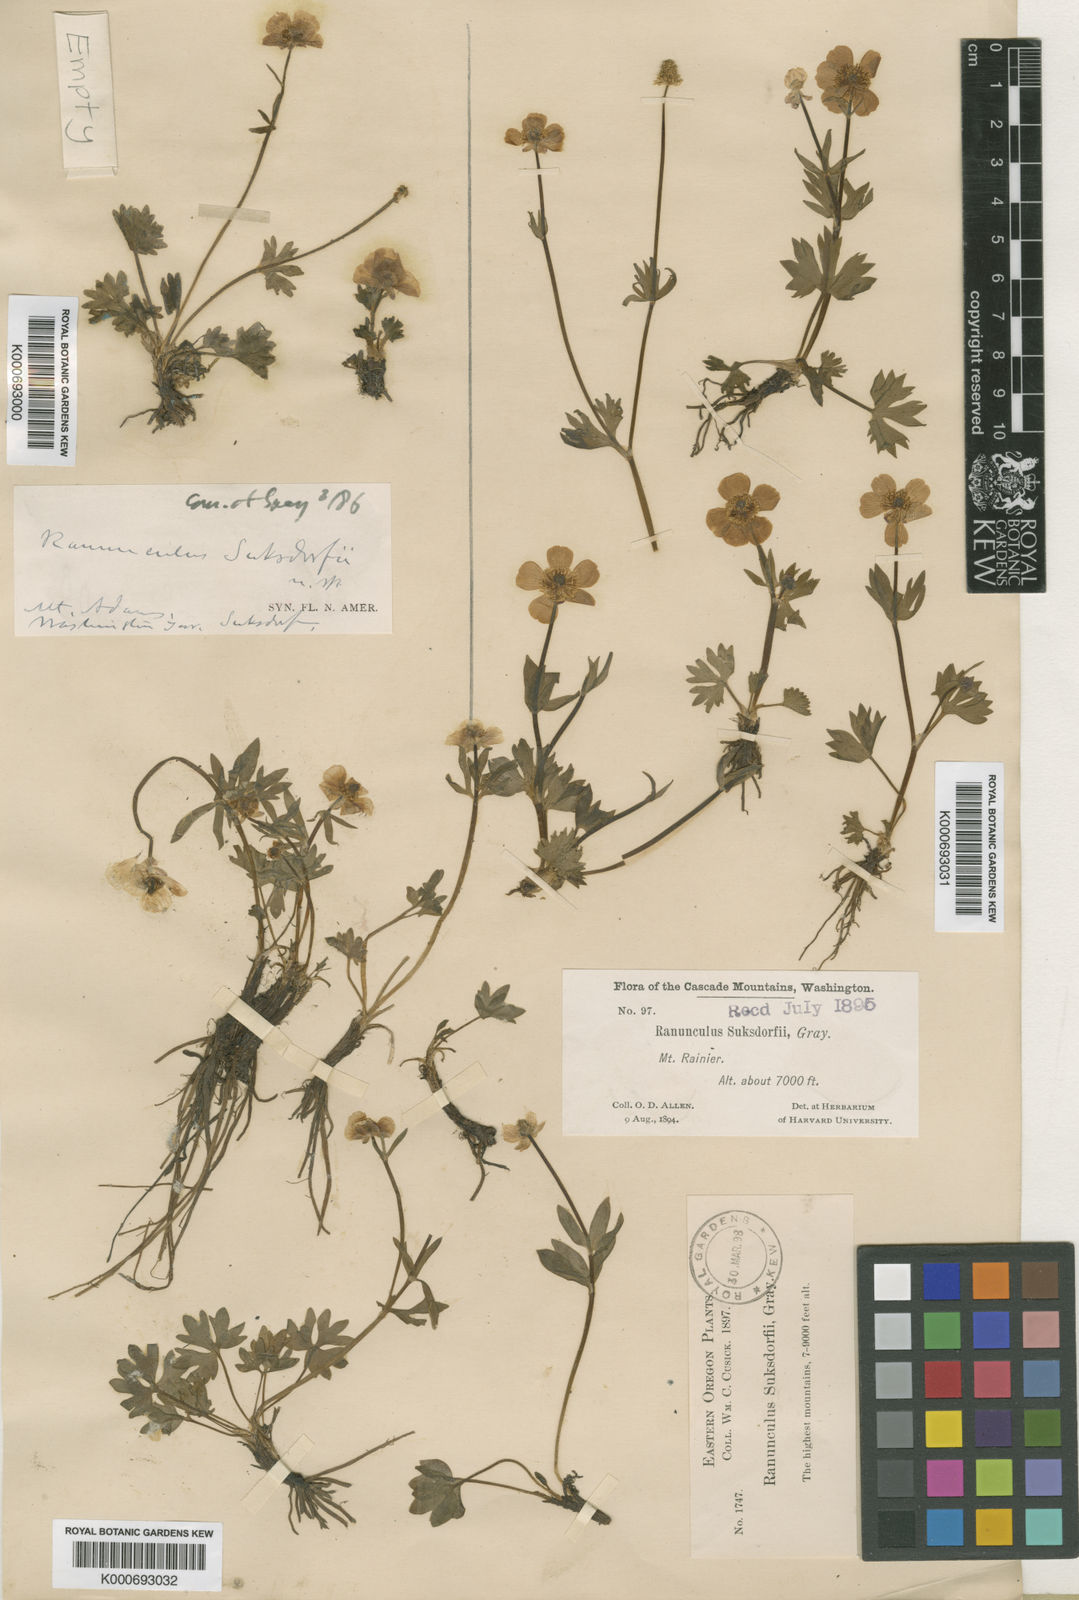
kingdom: Plantae
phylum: Tracheophyta
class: Magnoliopsida
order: Ranunculales
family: Ranunculaceae
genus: Ranunculus
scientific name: Ranunculus suksdorfii
